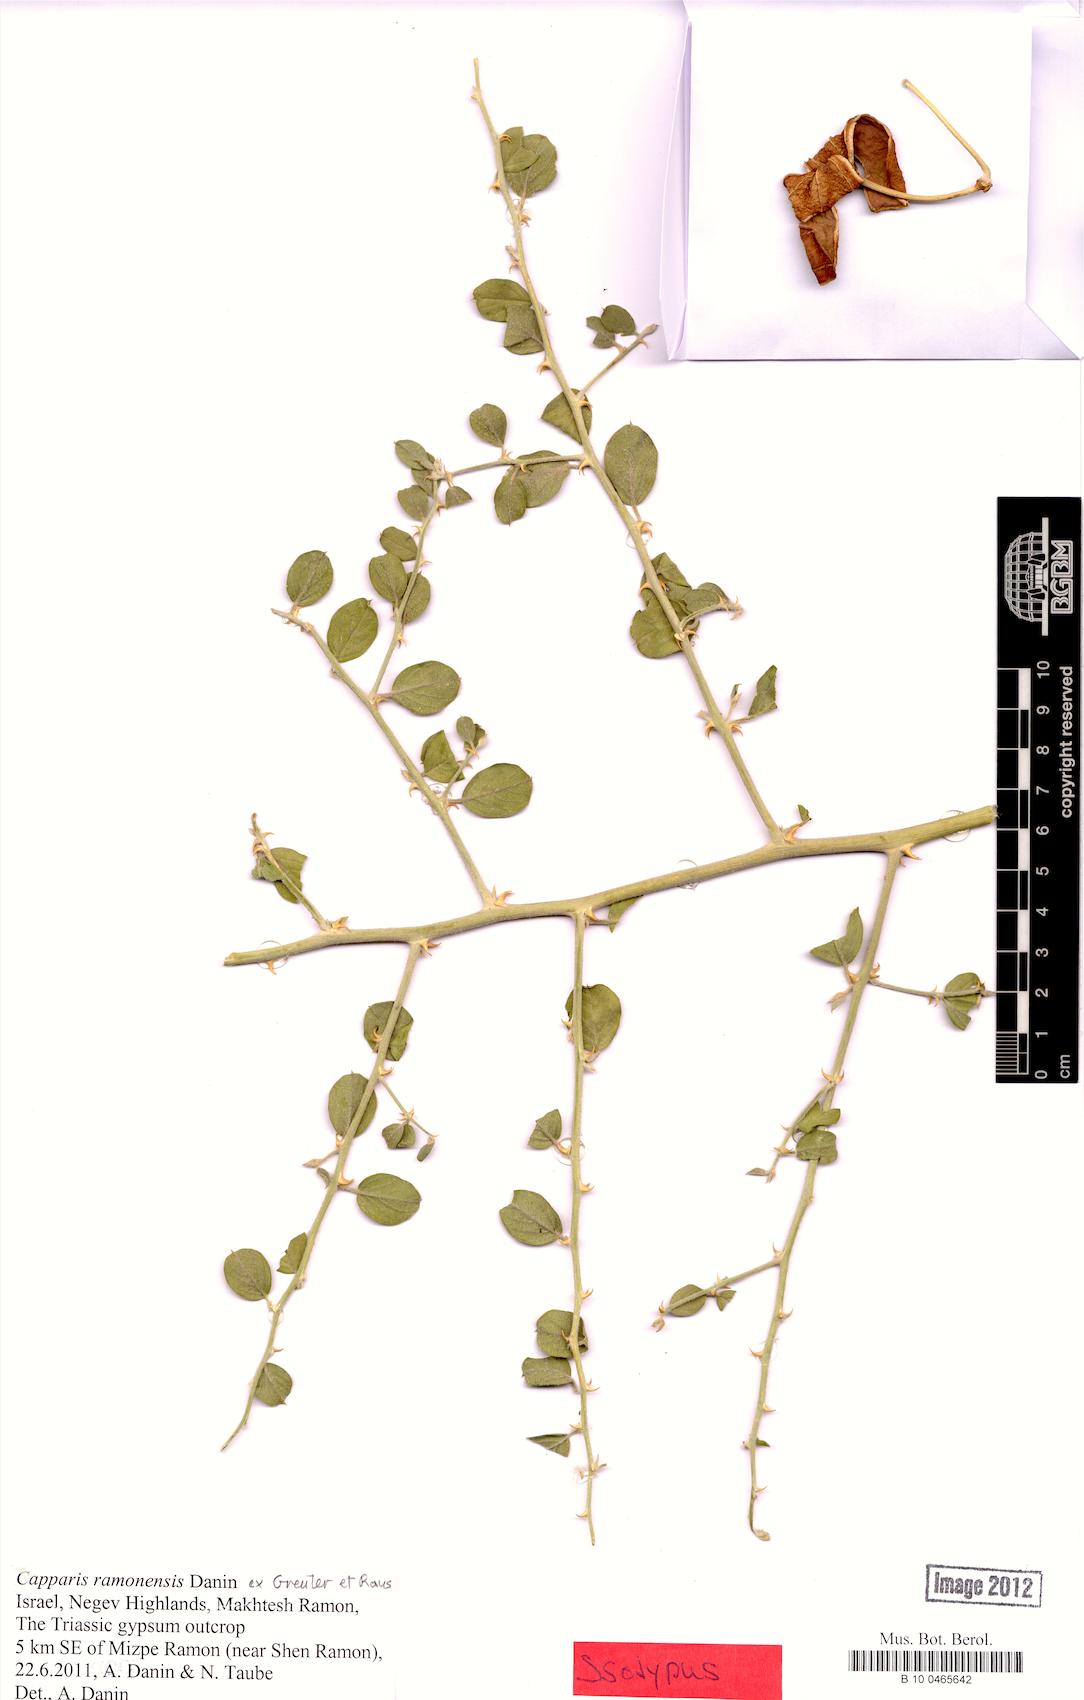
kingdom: Plantae
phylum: Tracheophyta
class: Magnoliopsida
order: Brassicales
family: Capparaceae
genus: Capparis
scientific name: Capparis ramonensis
